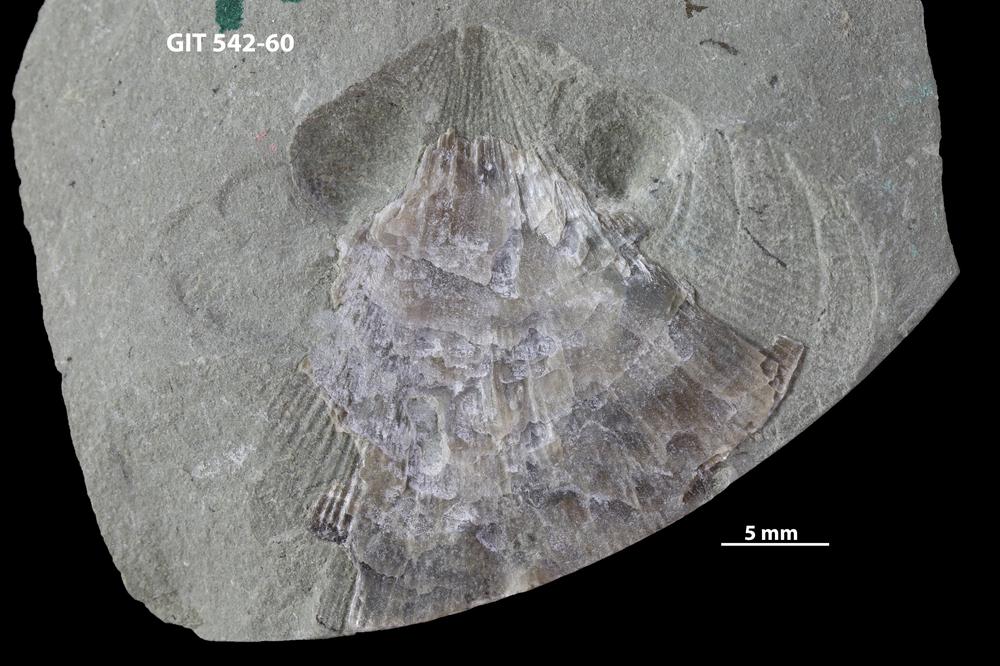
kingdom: Animalia
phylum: Brachiopoda
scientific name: Brachiopoda
